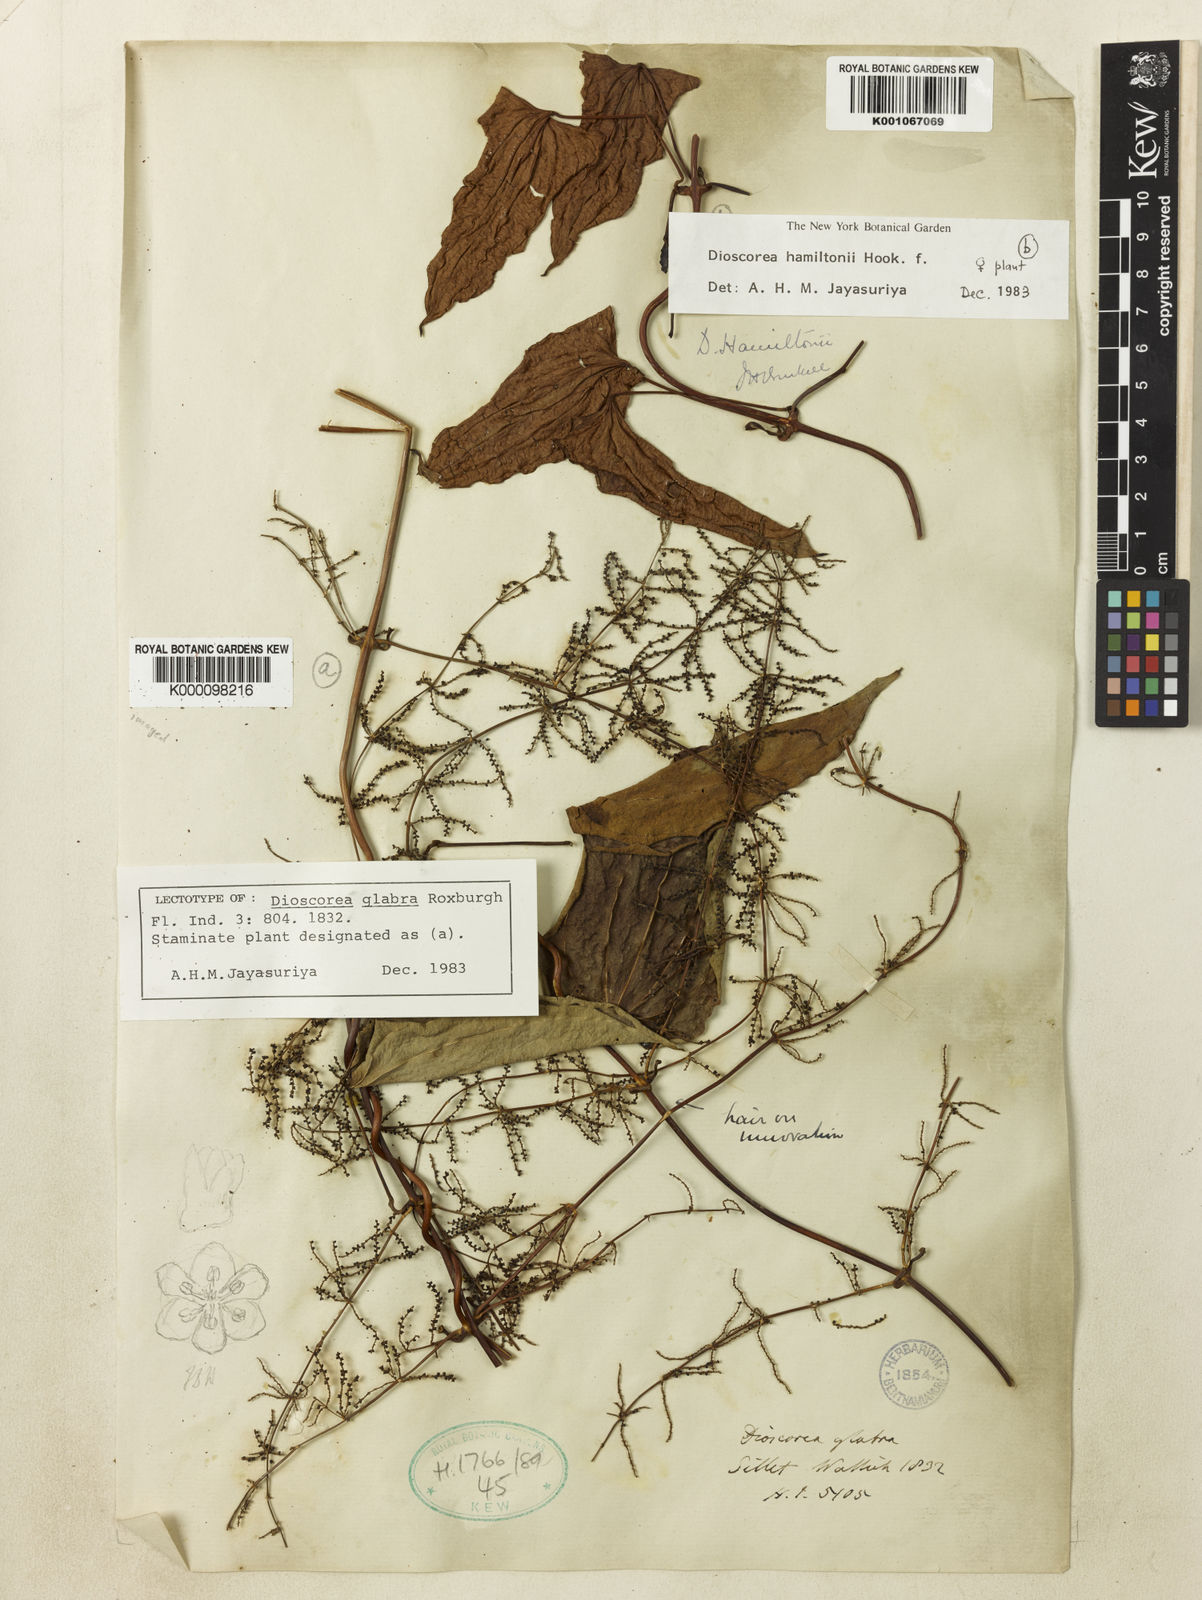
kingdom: Plantae
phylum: Tracheophyta
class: Liliopsida
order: Dioscoreales
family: Dioscoreaceae
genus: Dioscorea
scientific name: Dioscorea glabra
